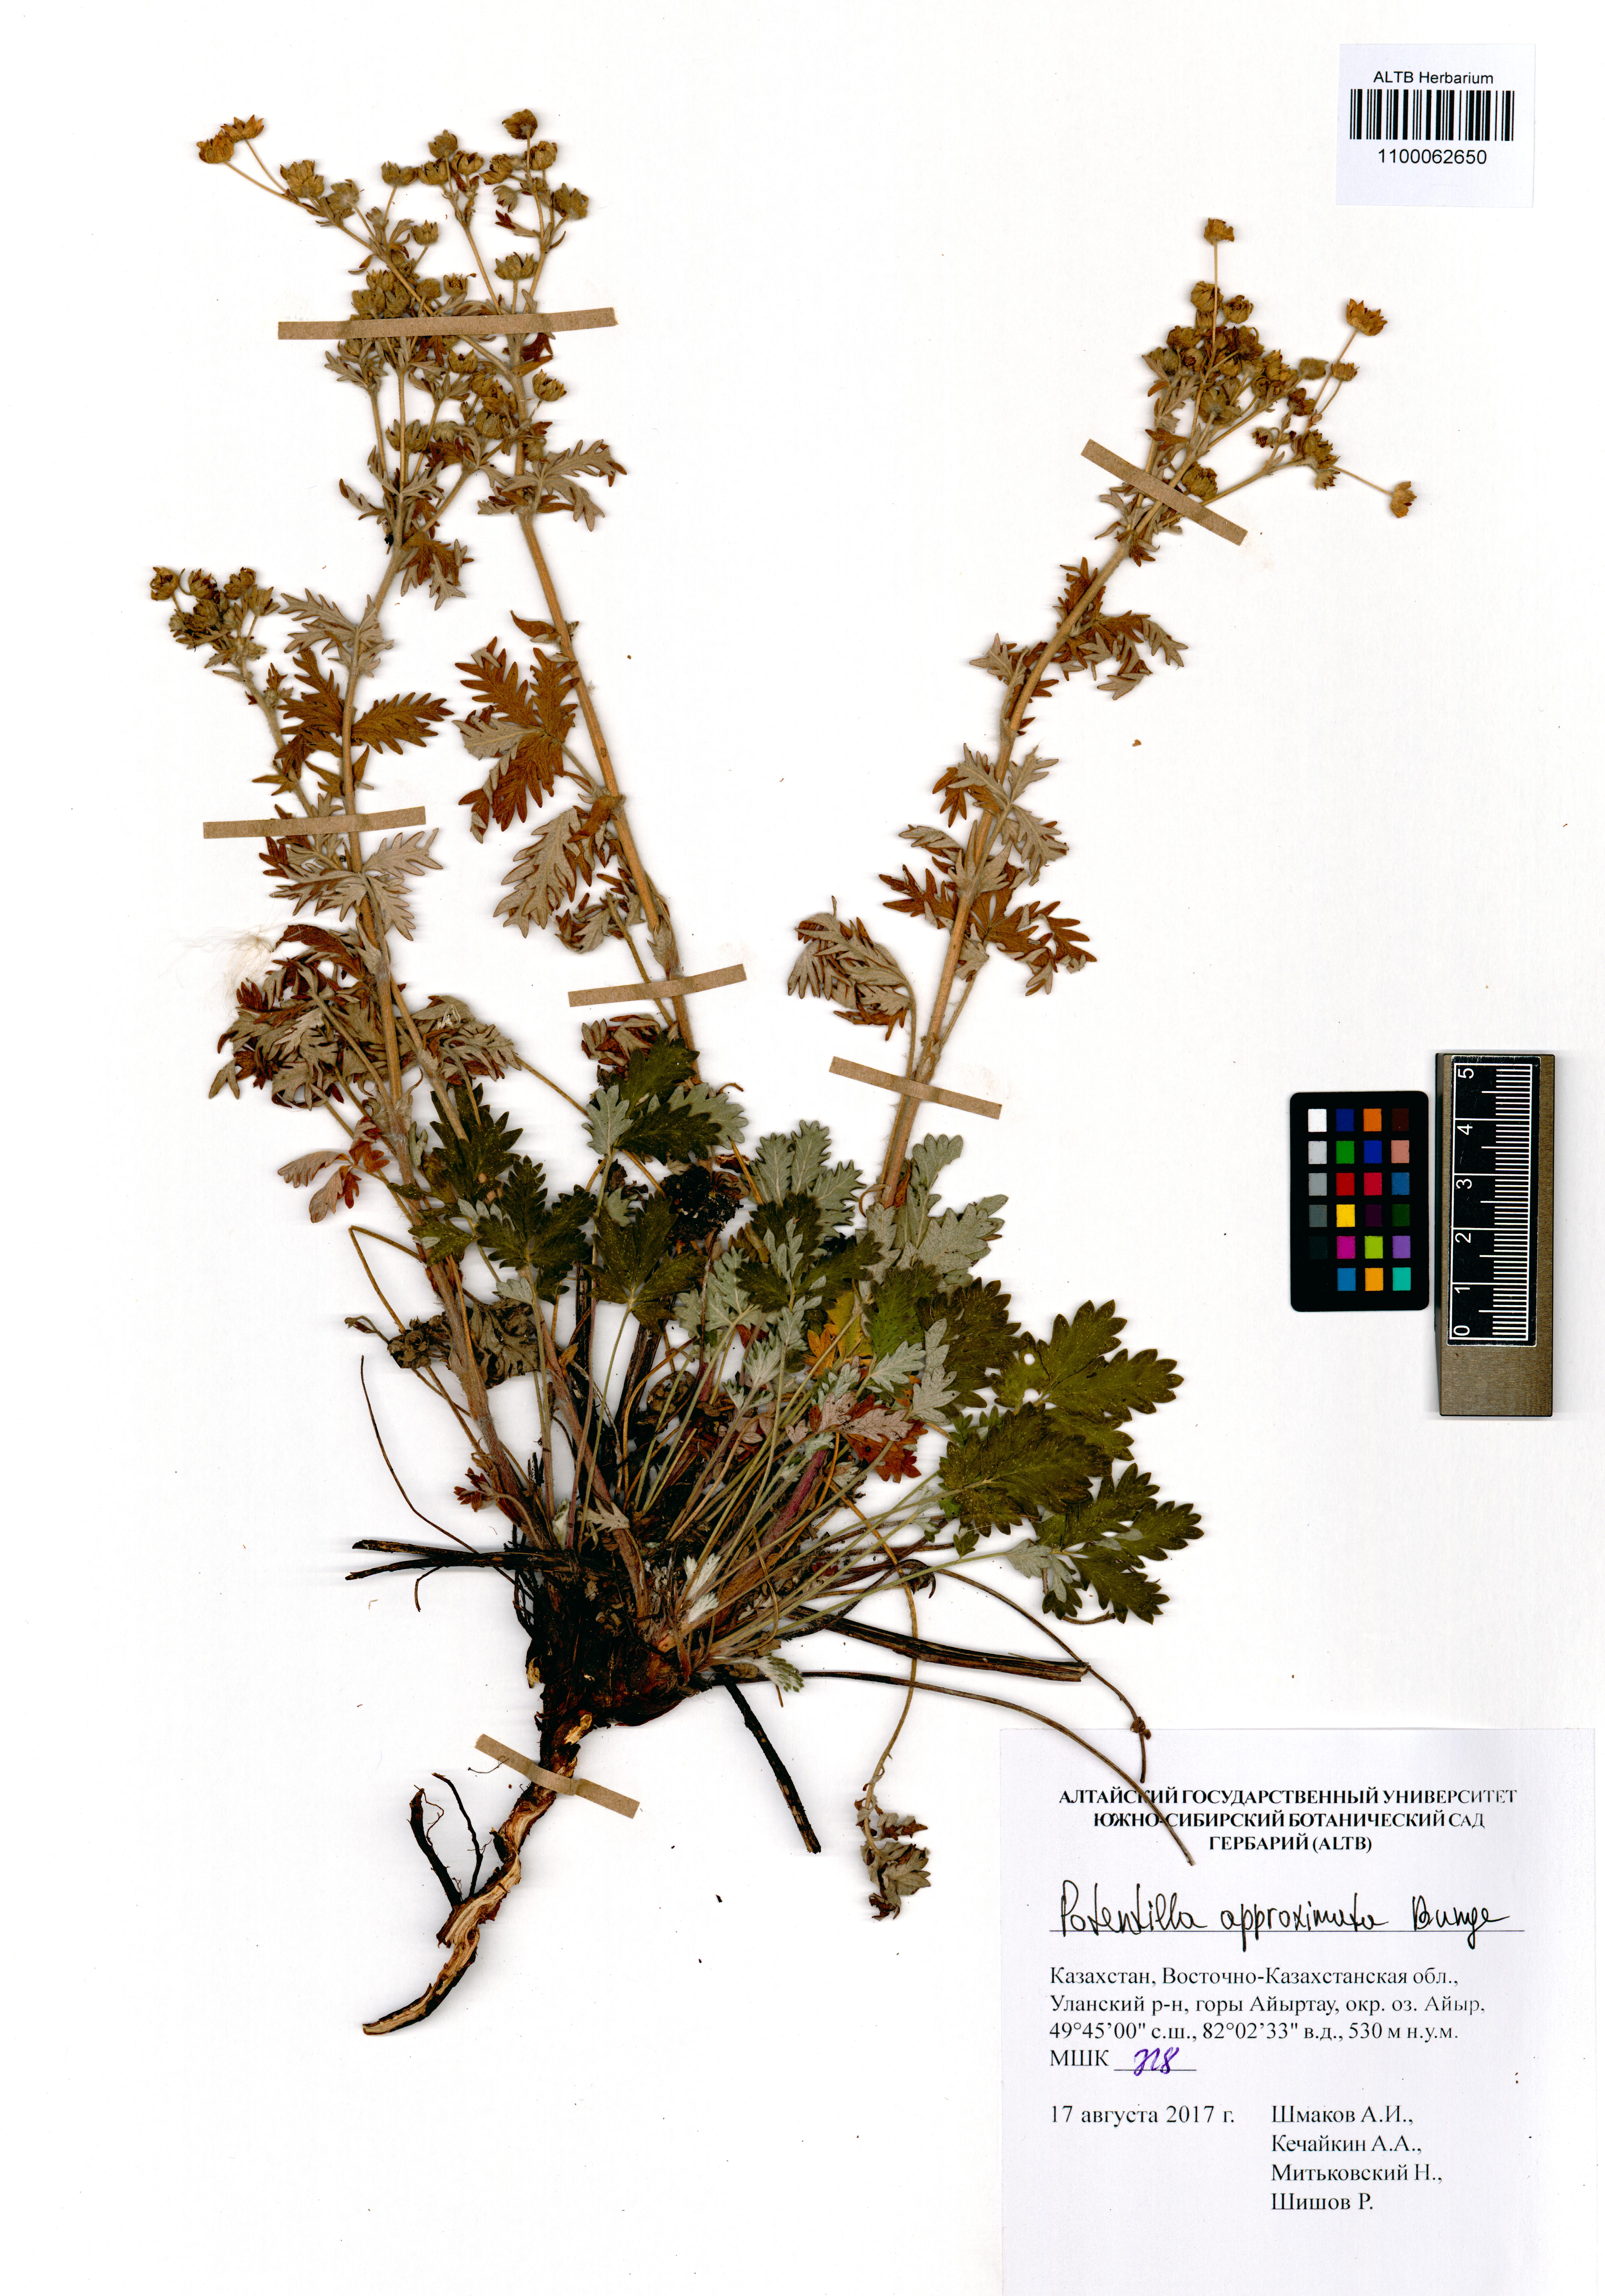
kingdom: Plantae
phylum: Tracheophyta
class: Magnoliopsida
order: Rosales
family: Rosaceae
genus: Potentilla
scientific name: Potentilla conferta
